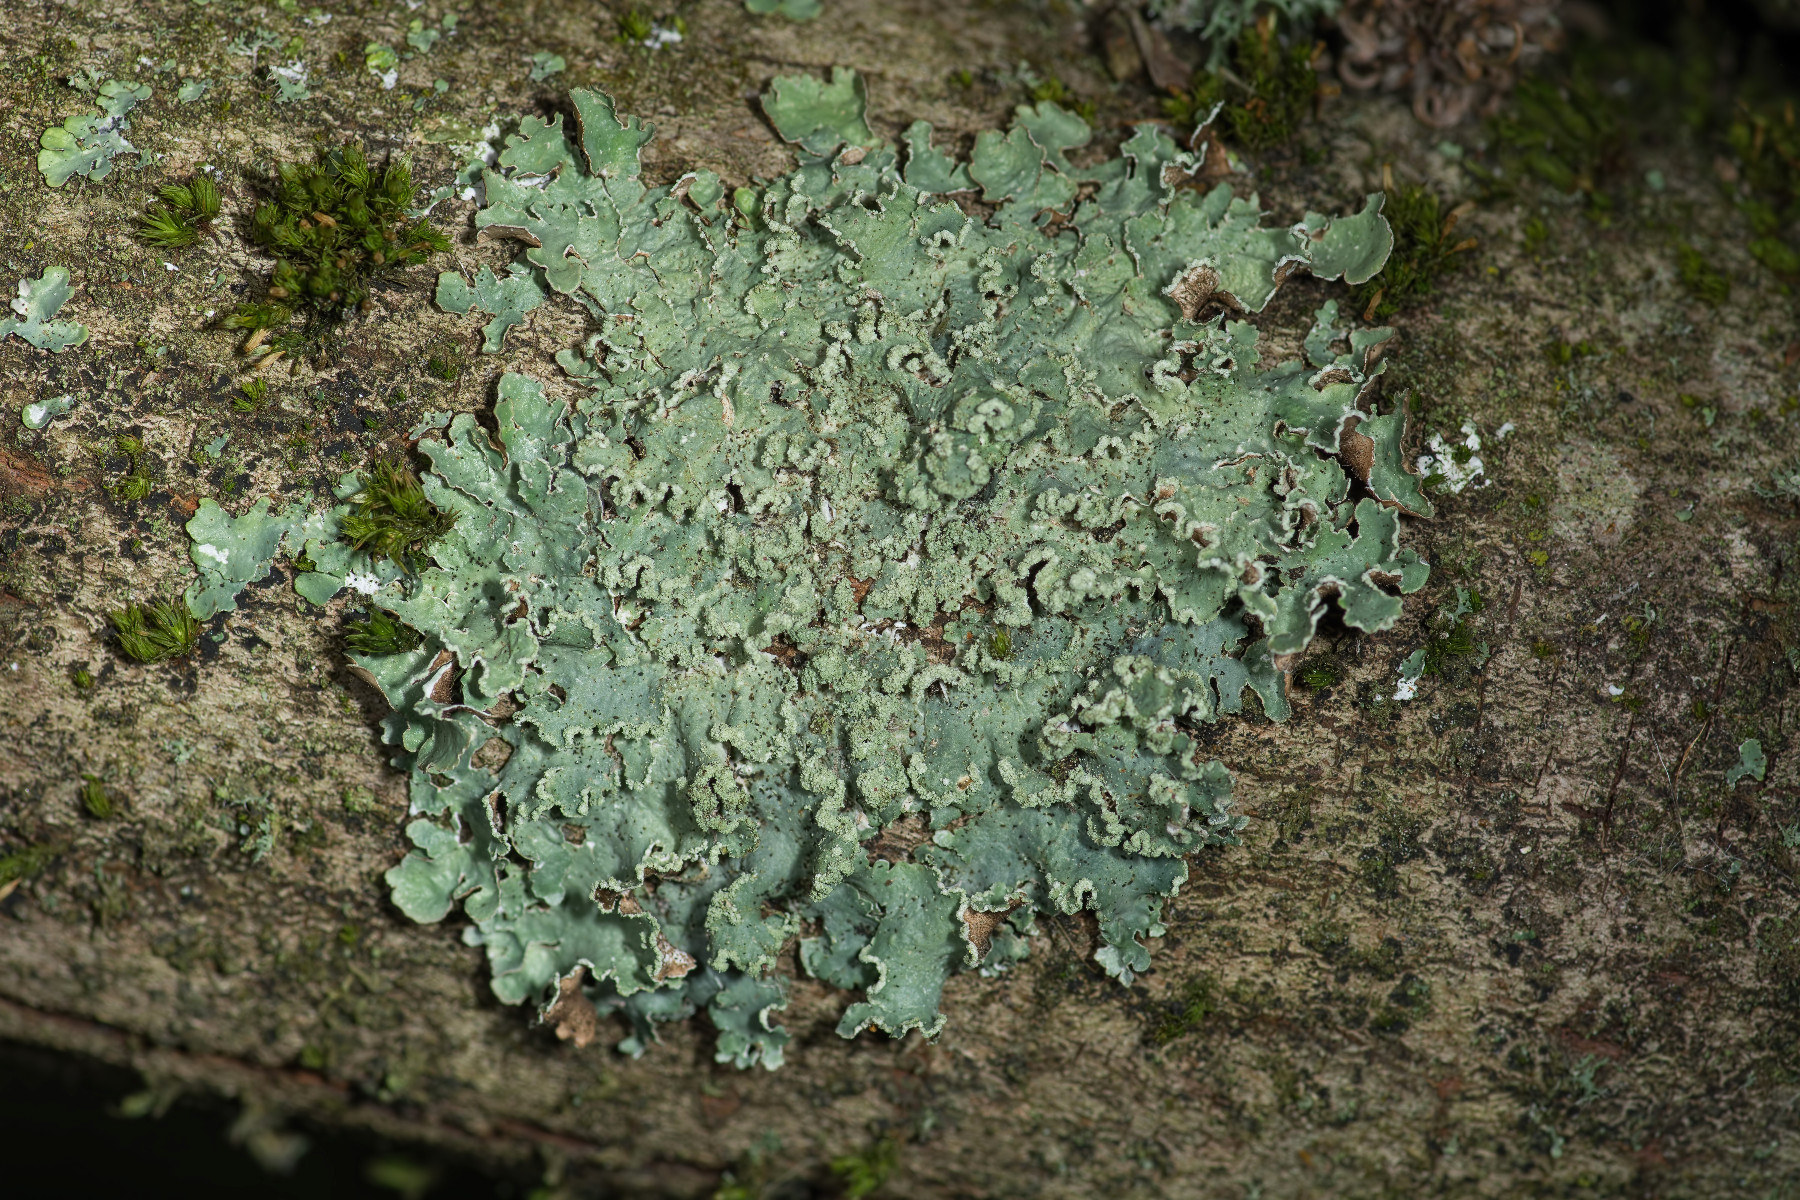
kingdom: Fungi
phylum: Ascomycota
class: Lecanoromycetes
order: Lecanorales
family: Parmeliaceae
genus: Punctelia
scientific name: Punctelia jeckeri
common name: randstøvet skållav
